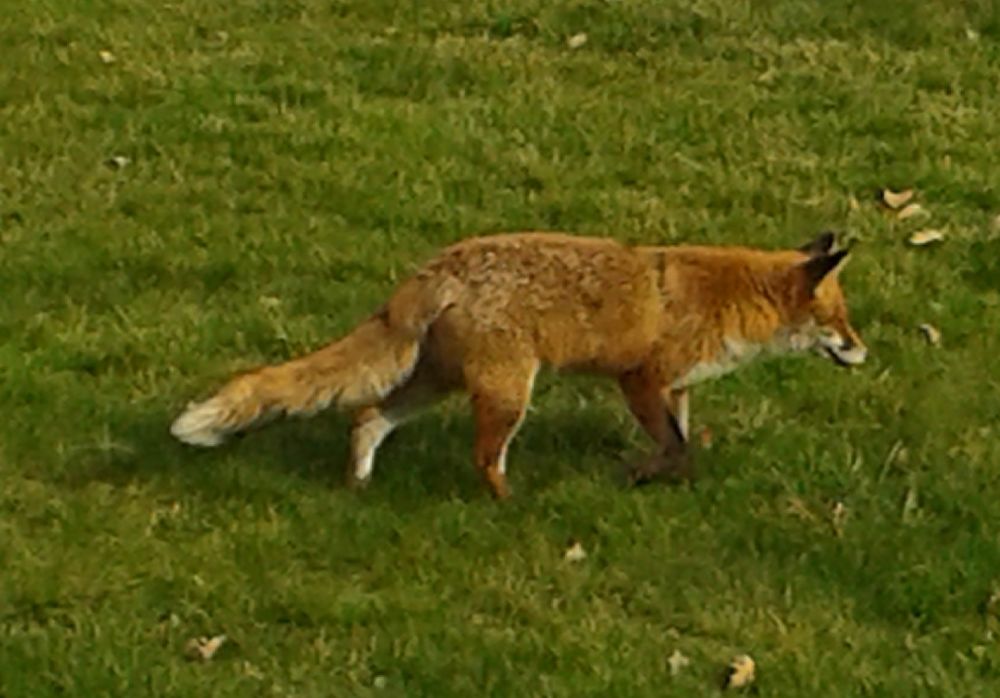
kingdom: Animalia
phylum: Chordata
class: Mammalia
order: Carnivora
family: Canidae
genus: Vulpes
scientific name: Vulpes vulpes
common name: Red fox
